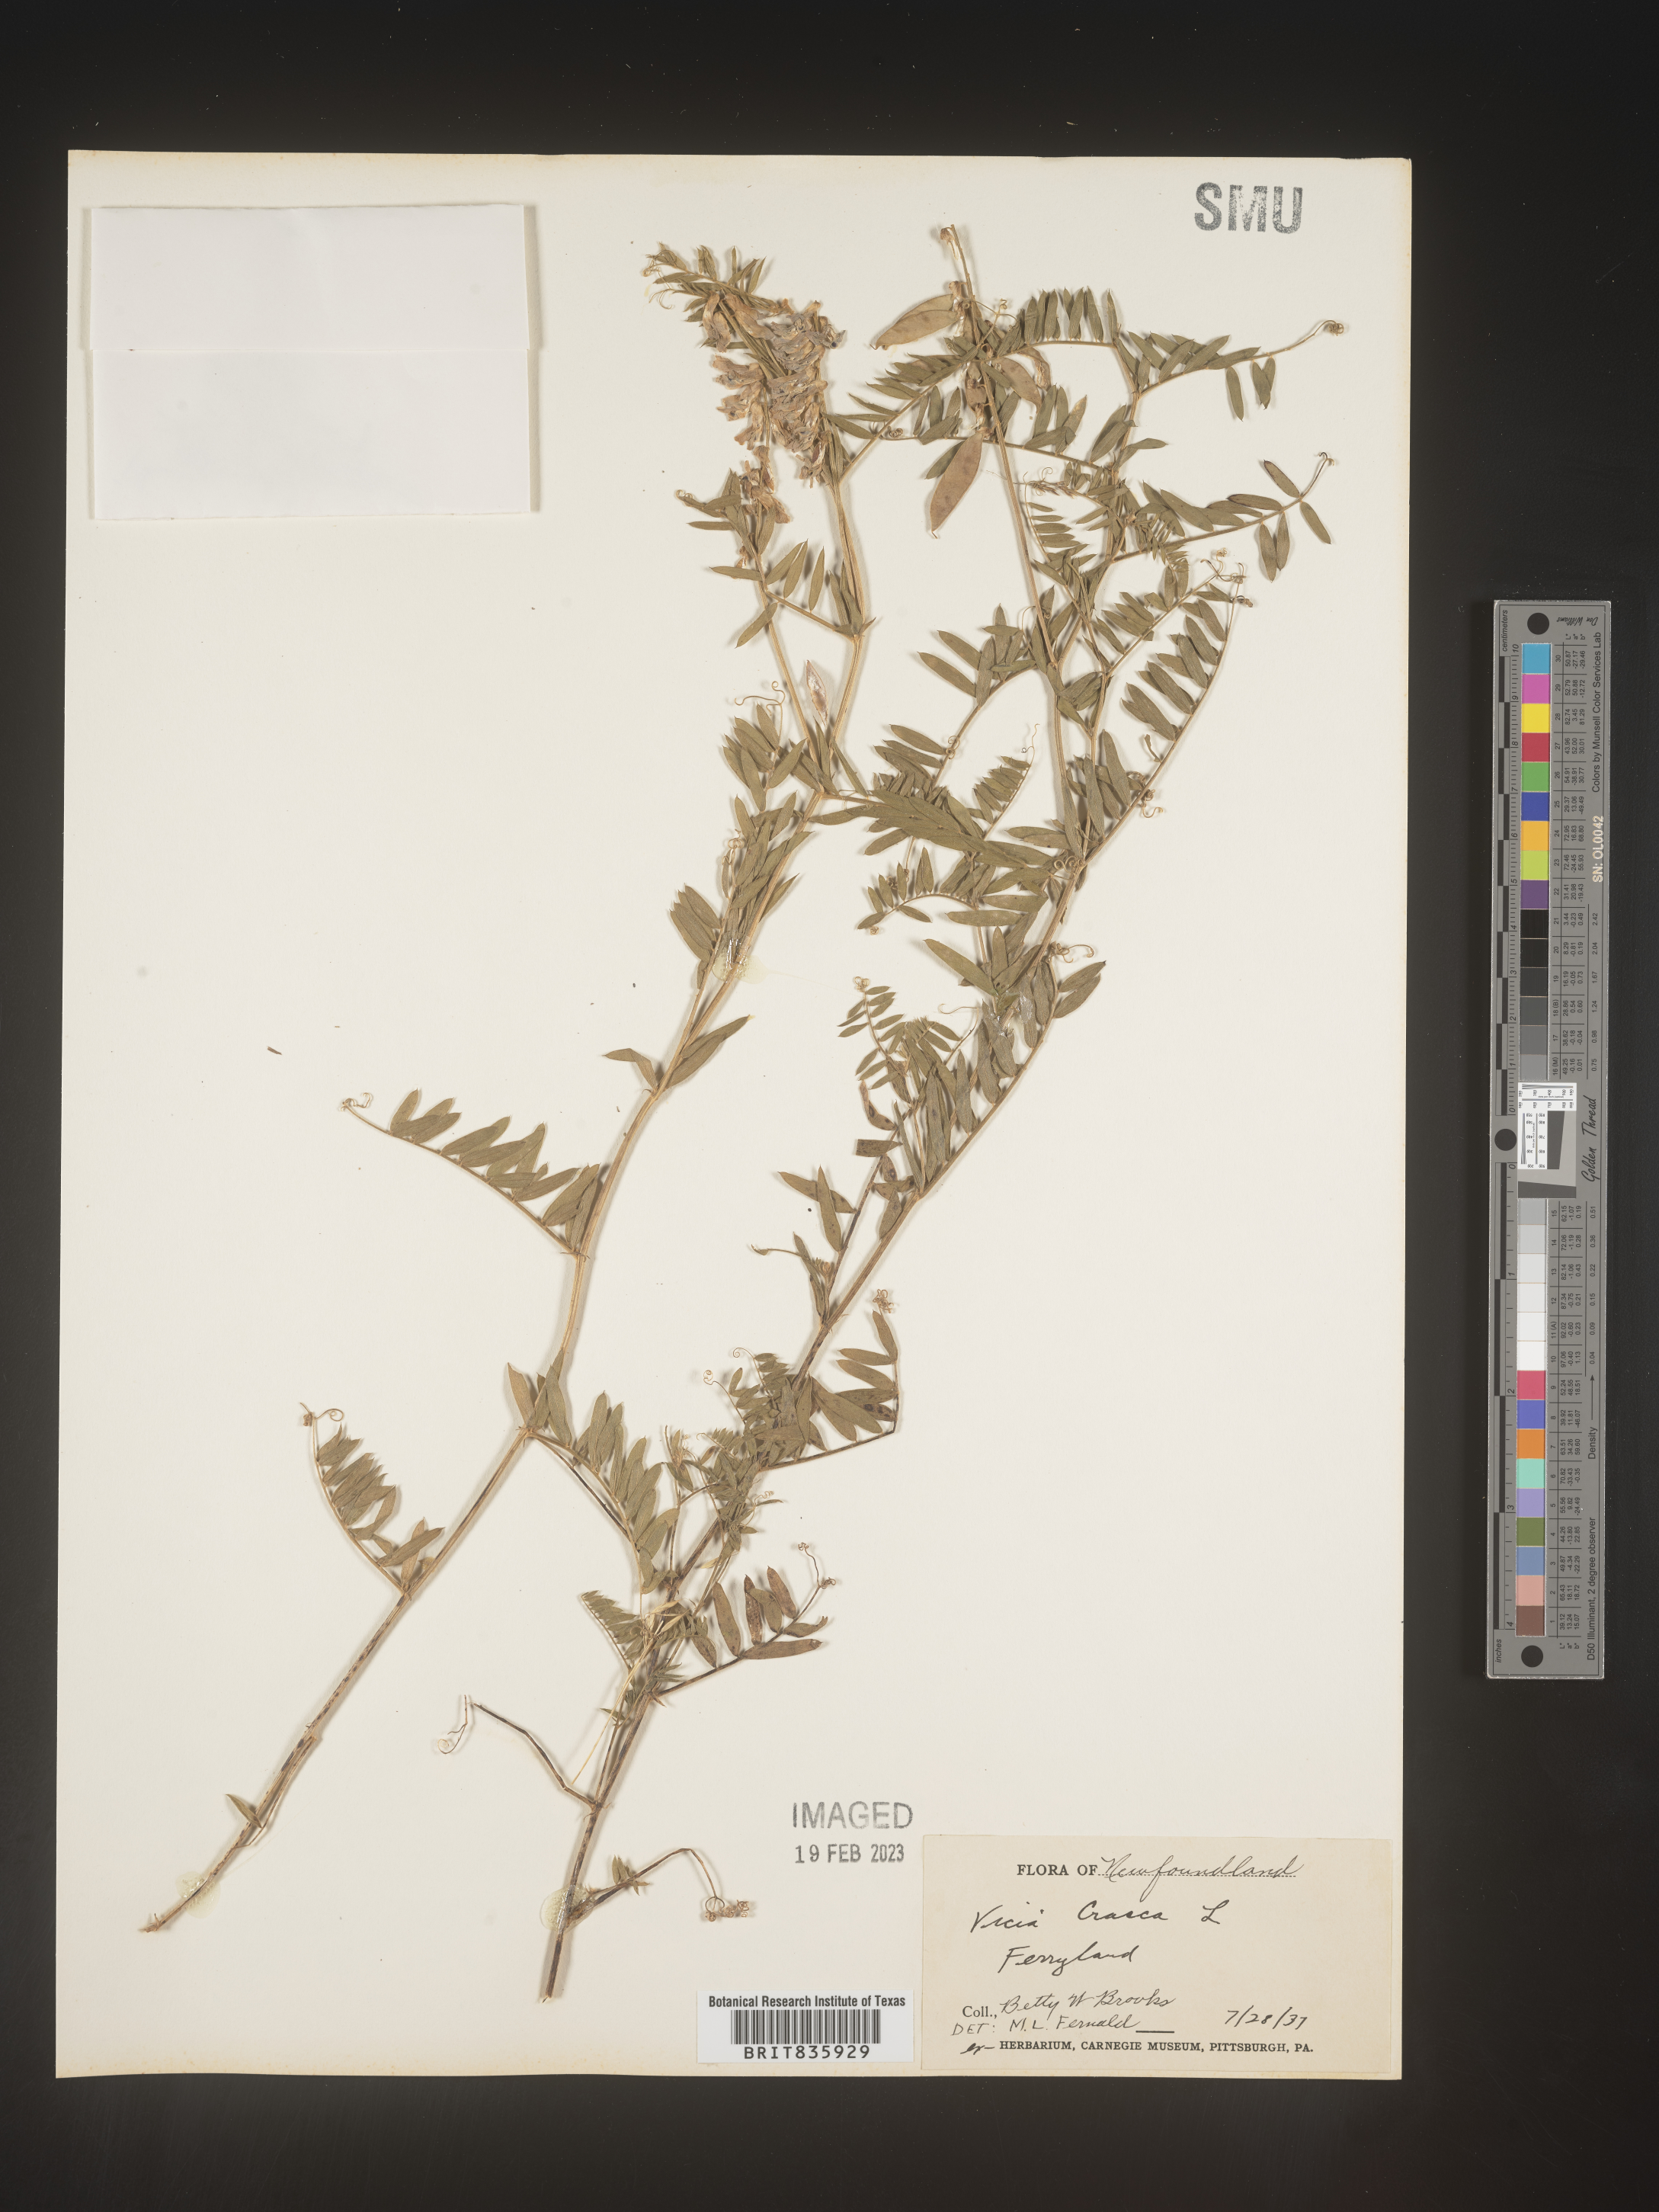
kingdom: Plantae
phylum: Tracheophyta
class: Magnoliopsida
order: Fabales
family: Fabaceae
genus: Vicia
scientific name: Vicia cracca
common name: Bird vetch
